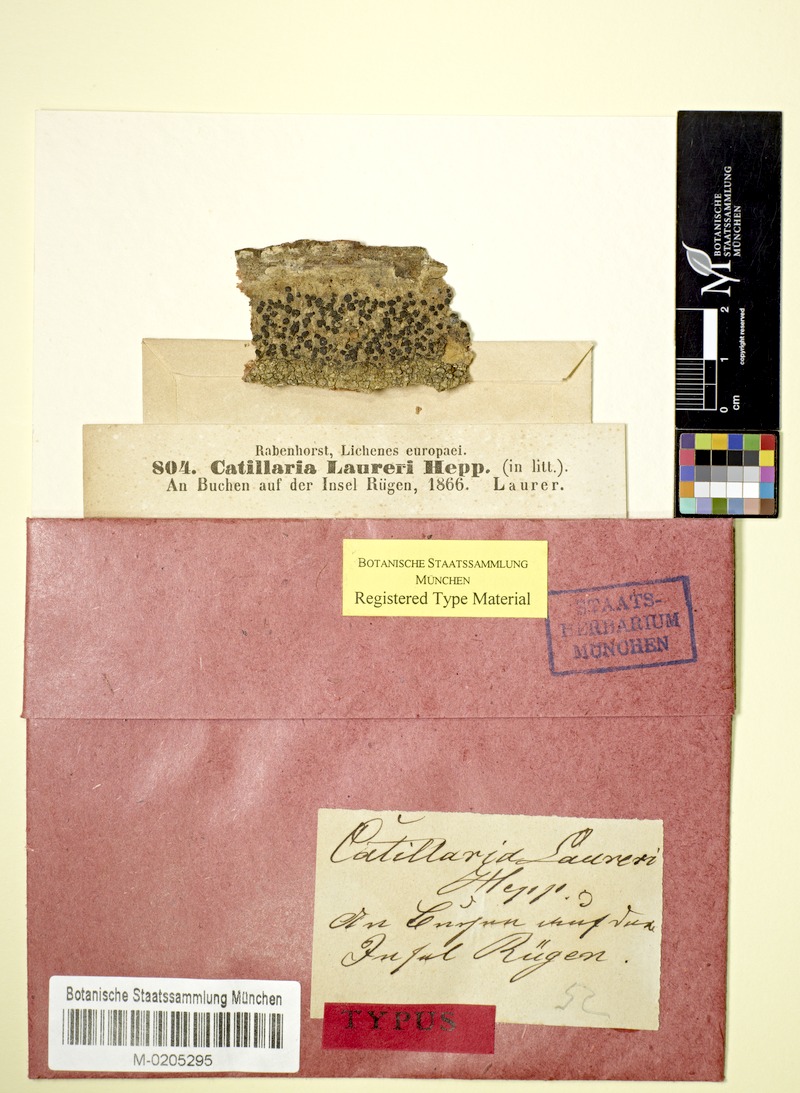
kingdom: Fungi
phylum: Ascomycota
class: Lecanoromycetes
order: Lecanorales
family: Ramalinaceae
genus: Megalaria
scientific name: Megalaria laureri
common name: Laurer's catillaria
